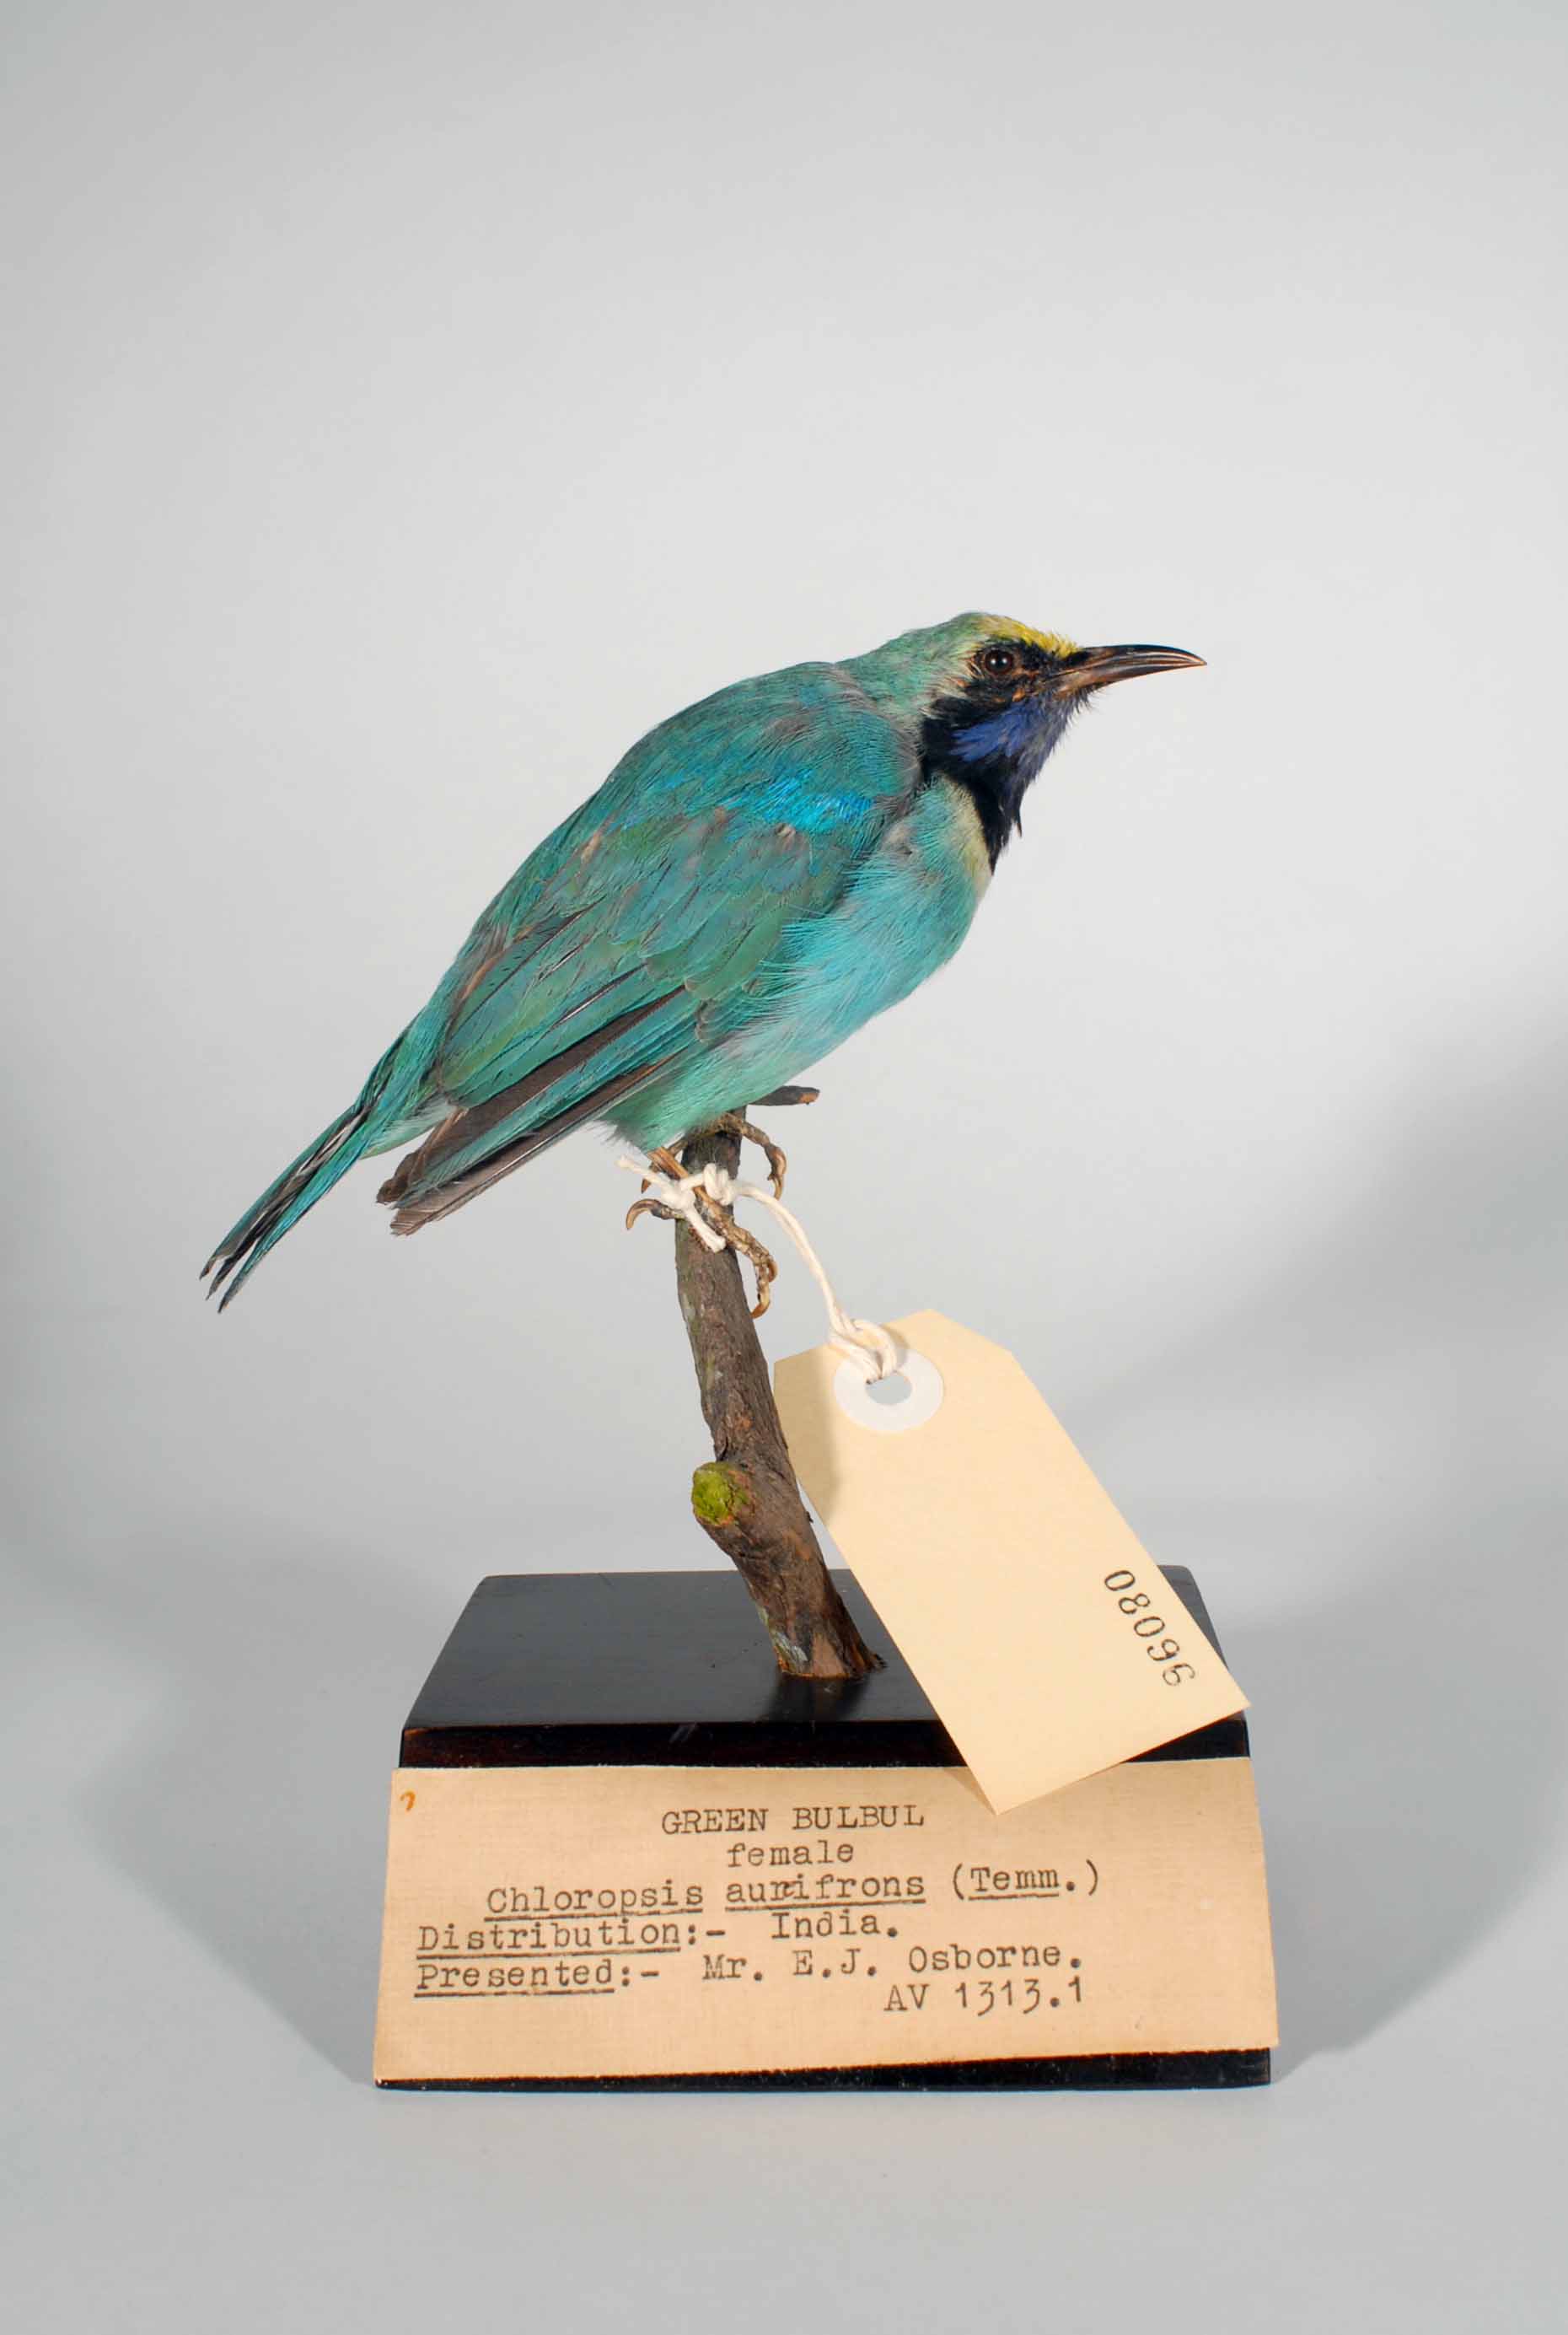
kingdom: Animalia
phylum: Chordata
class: Aves
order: Passeriformes
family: Chloropseidae
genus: Chloropsis
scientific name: Chloropsis aurifrons
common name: Golden-fronted leafbird
